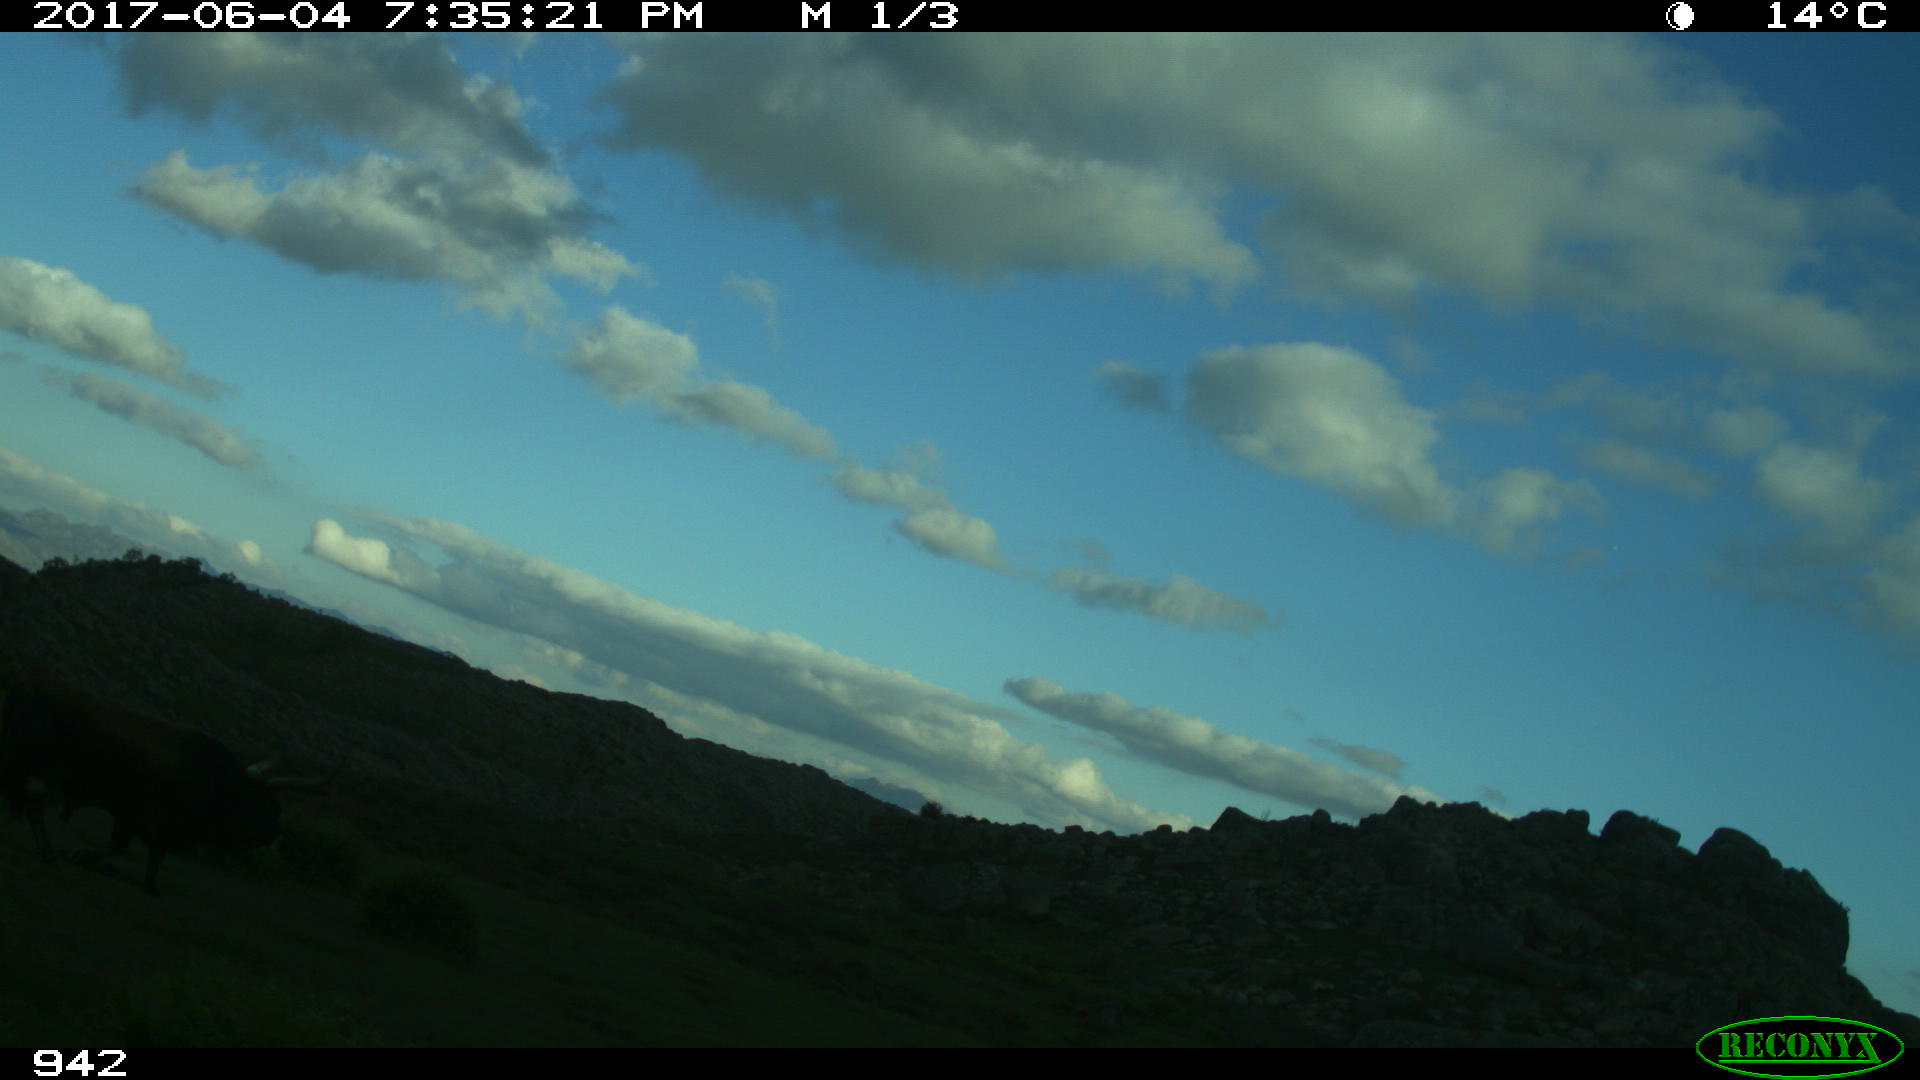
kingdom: Animalia
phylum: Chordata
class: Mammalia
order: Artiodactyla
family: Bovidae
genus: Bos
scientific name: Bos taurus
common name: Domesticated cattle
